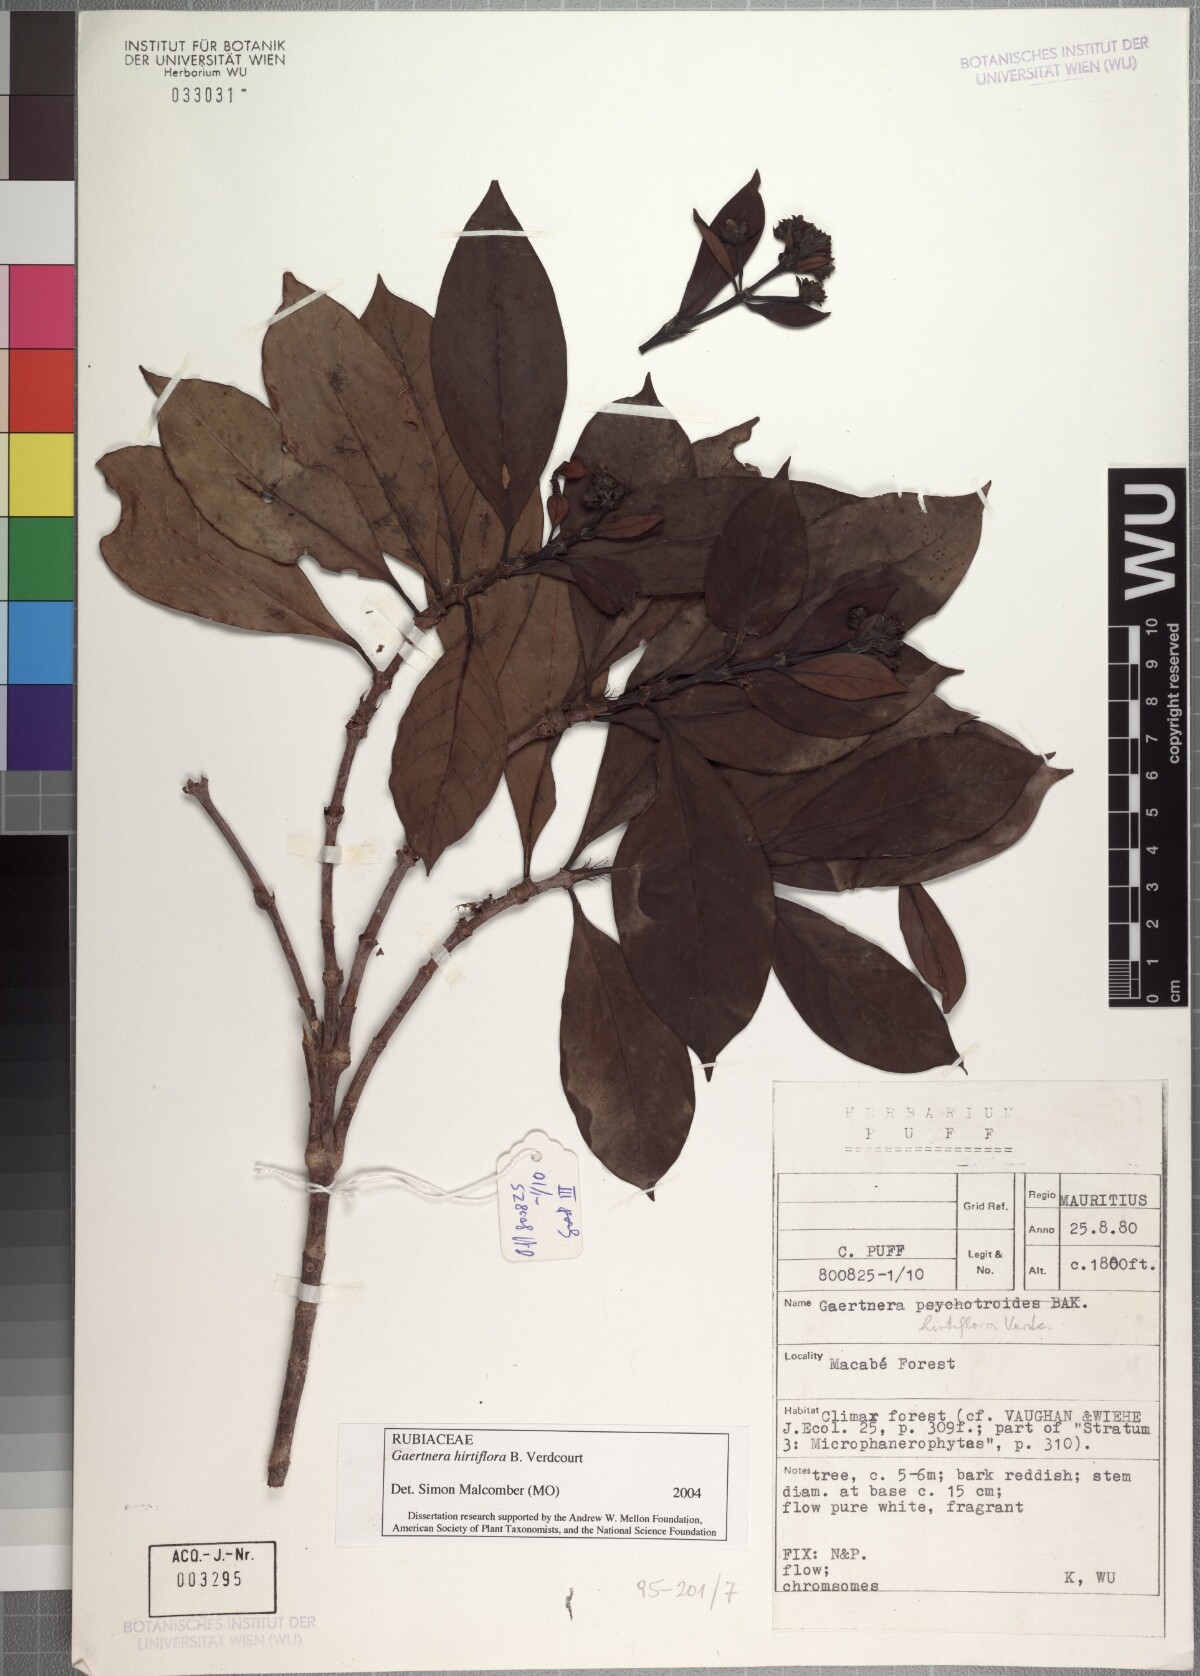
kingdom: Plantae
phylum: Tracheophyta
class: Magnoliopsida
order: Gentianales
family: Rubiaceae
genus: Gaertnera
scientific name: Gaertnera hirtiflora
